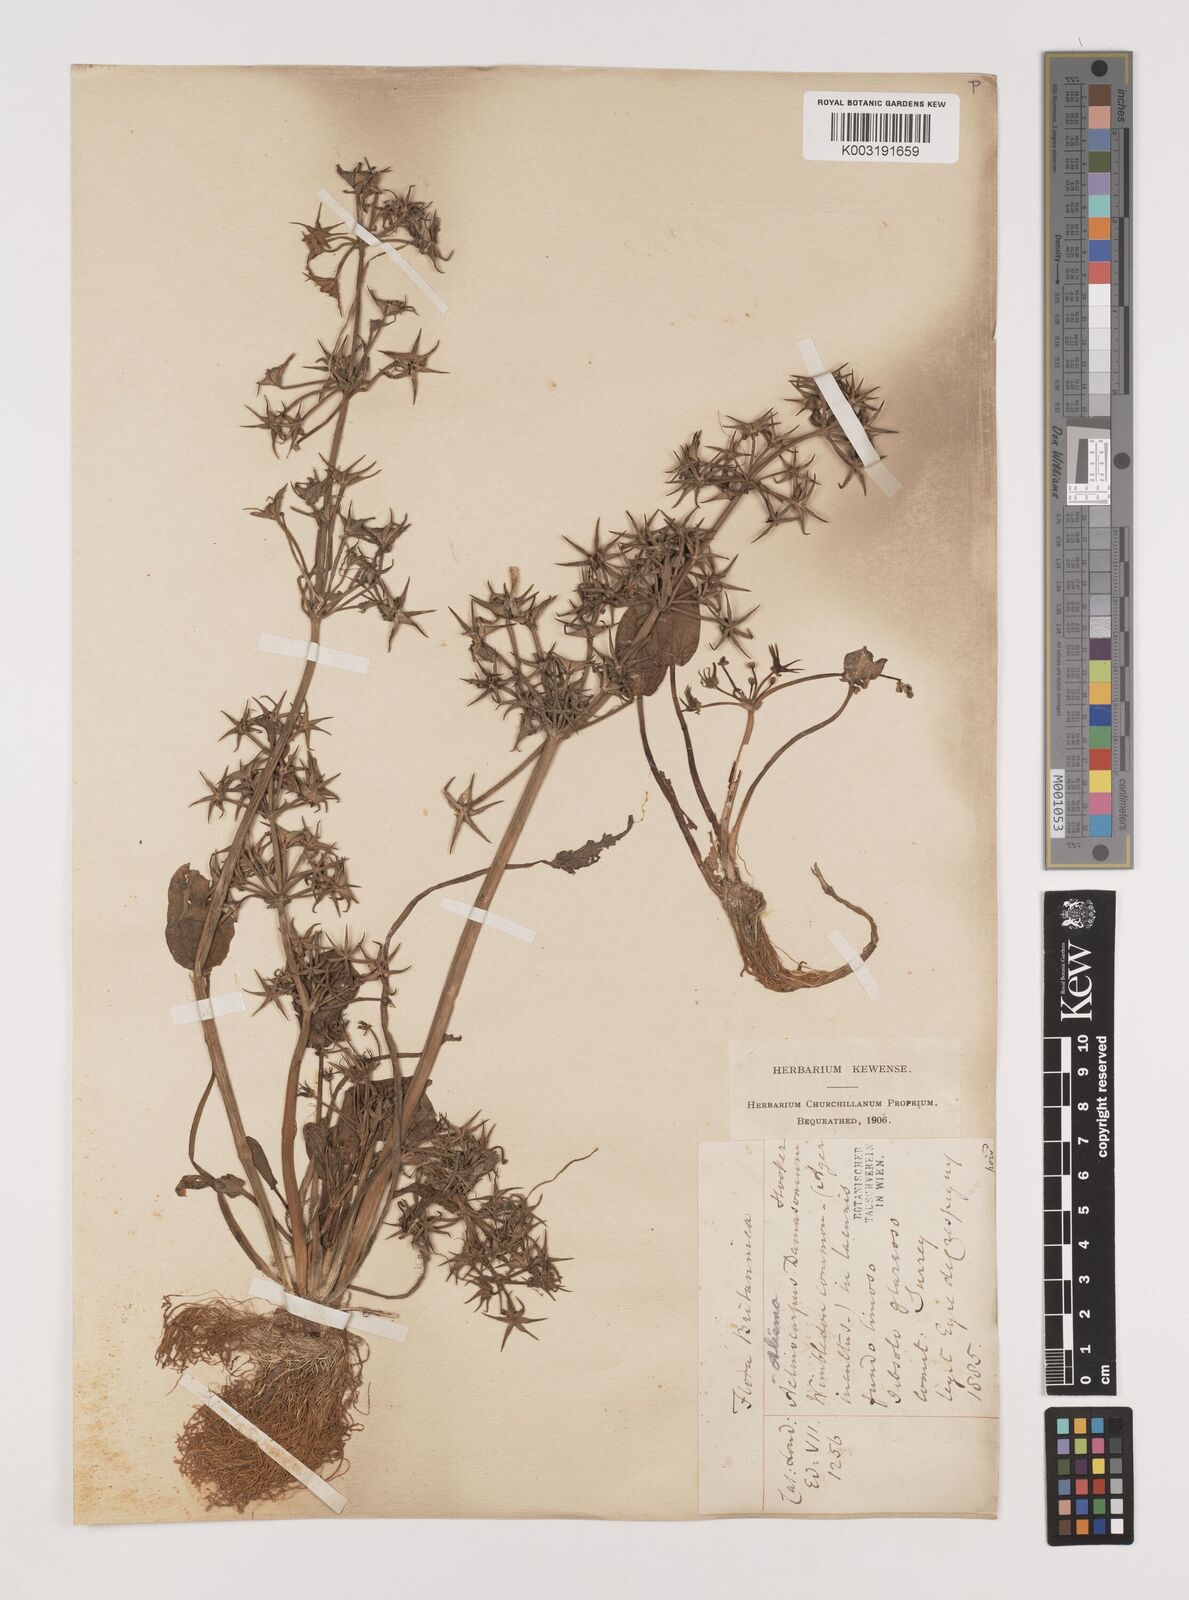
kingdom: Plantae
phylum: Tracheophyta
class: Liliopsida
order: Alismatales
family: Alismataceae
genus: Damasonium
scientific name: Damasonium alisma
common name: Starfruit
